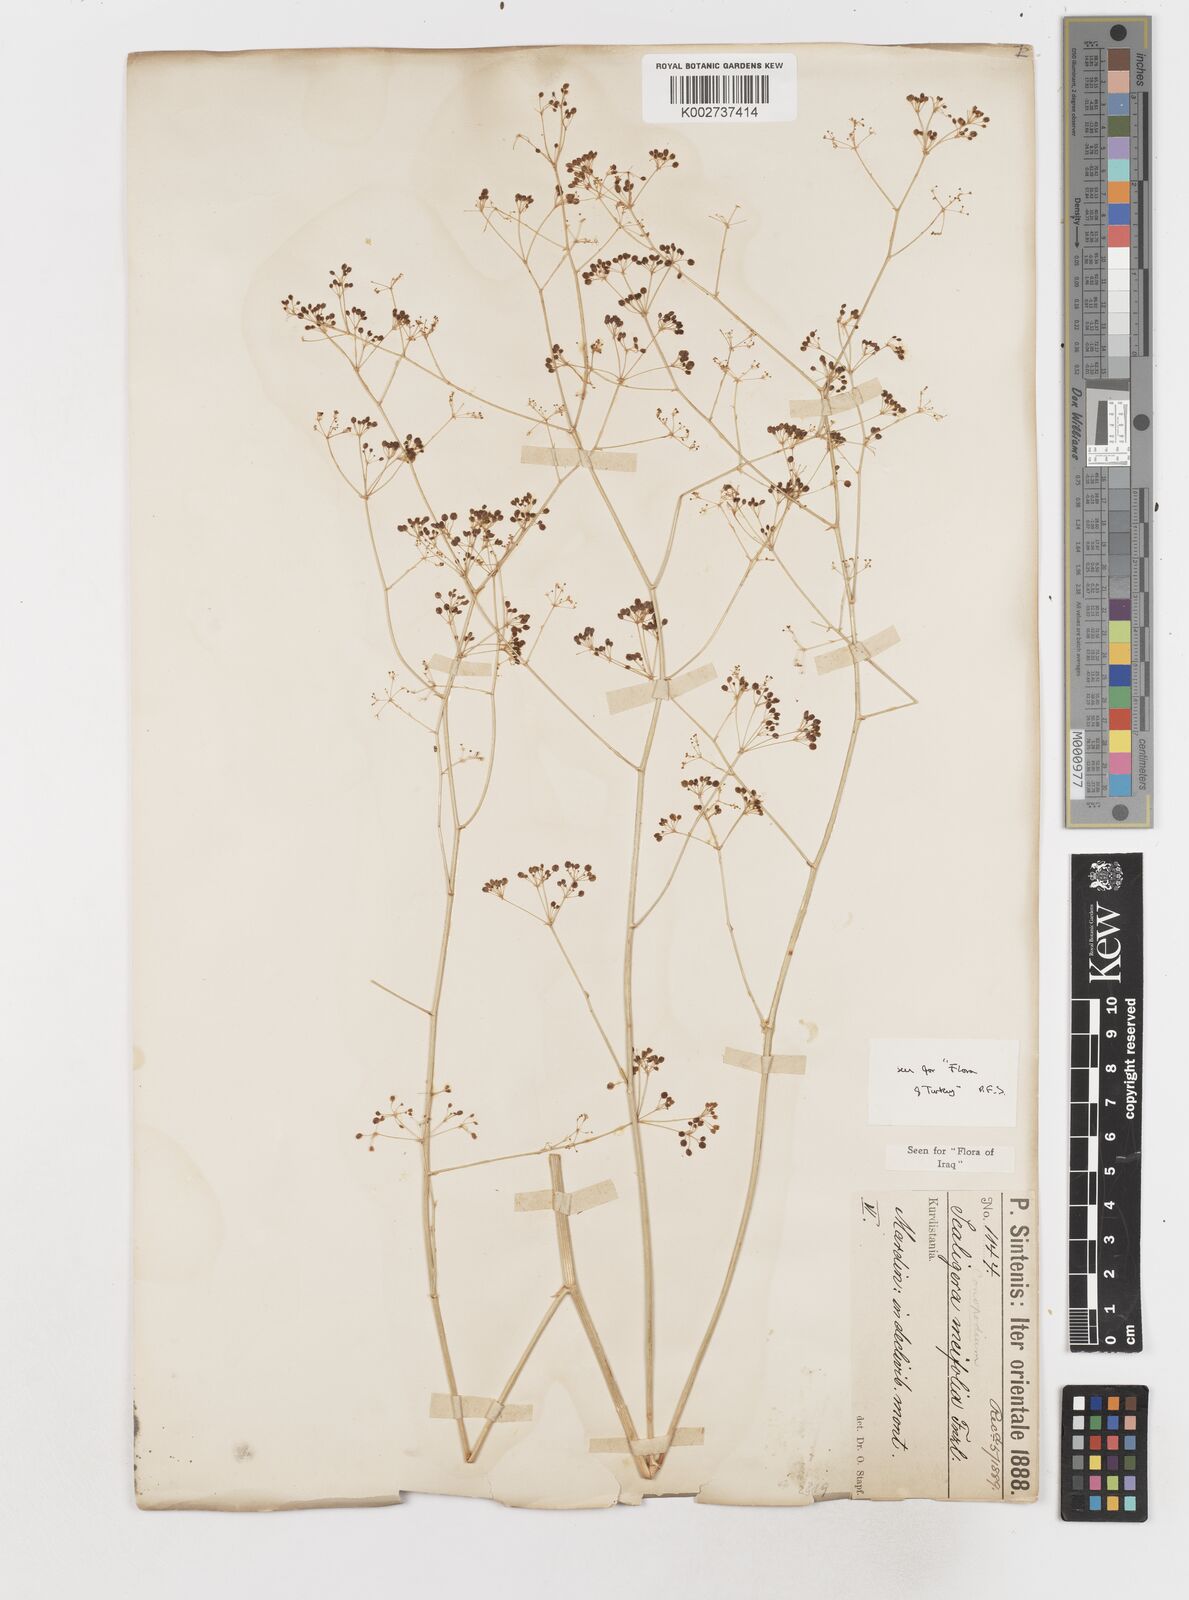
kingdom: Plantae
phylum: Tracheophyta
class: Magnoliopsida
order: Apiales
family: Apiaceae
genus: Elaeosticta
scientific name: Elaeosticta meifolia
